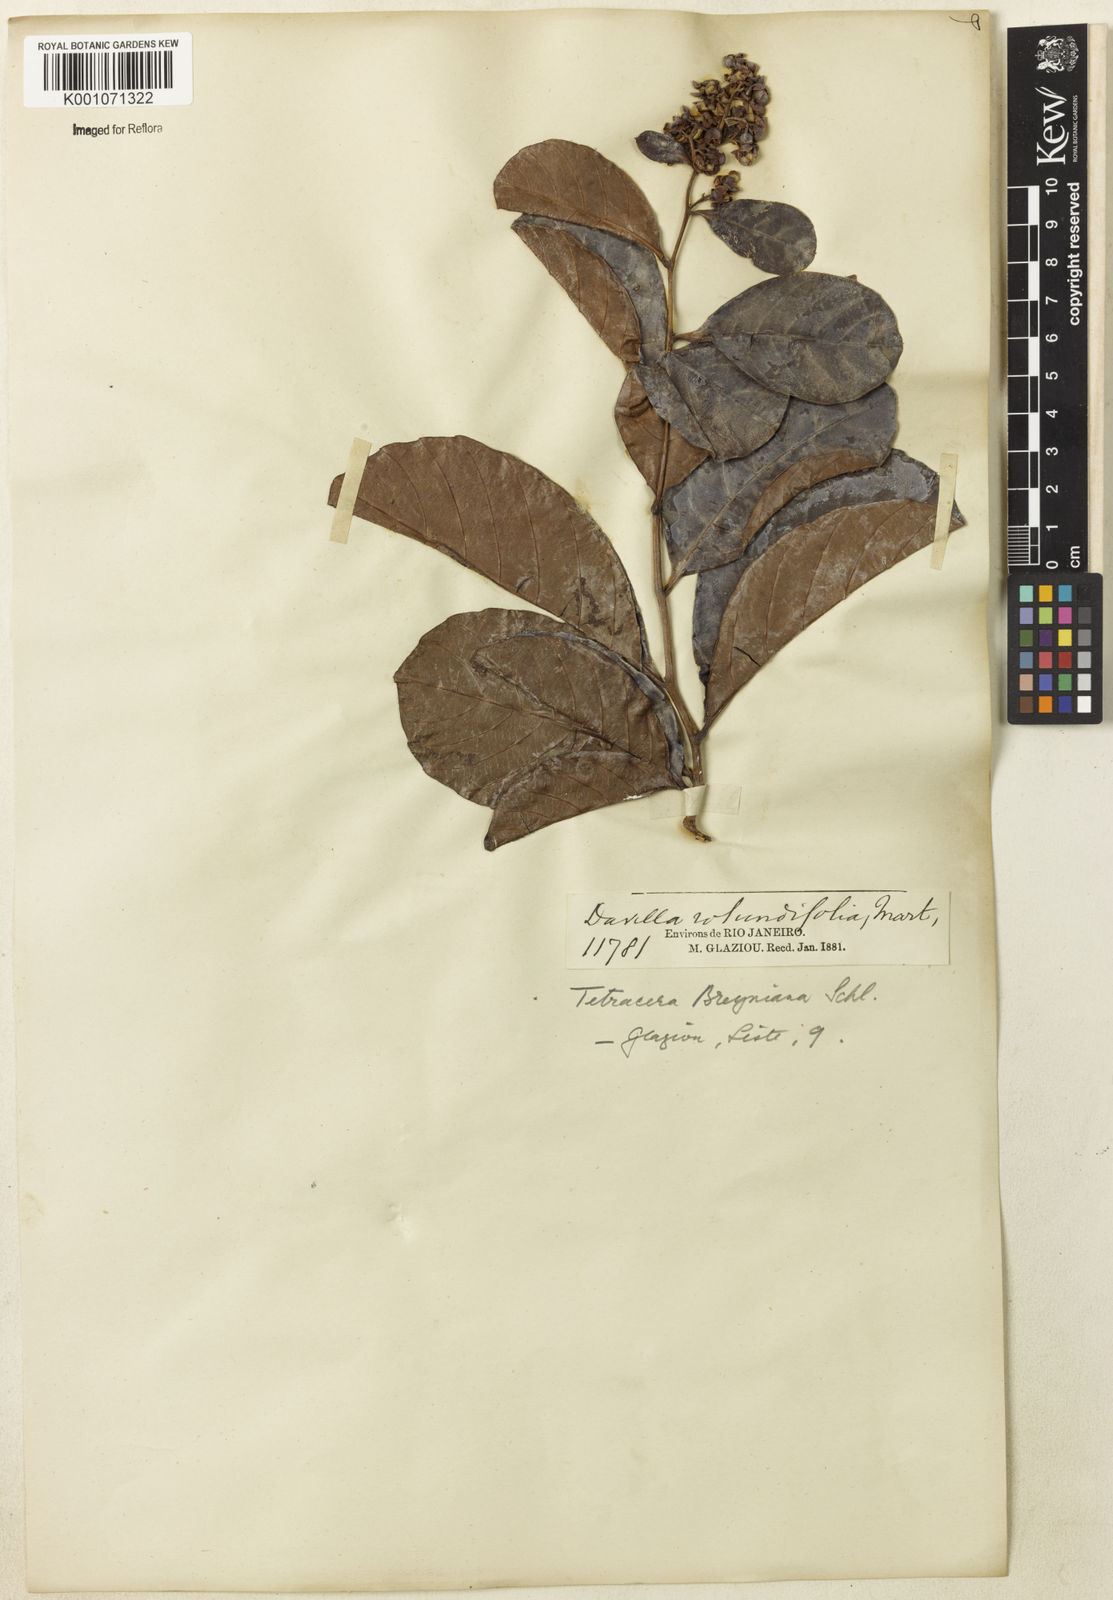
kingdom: Plantae
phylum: Tracheophyta
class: Magnoliopsida
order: Dilleniales
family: Dilleniaceae
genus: Tetracera
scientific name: Tetracera breyniana
